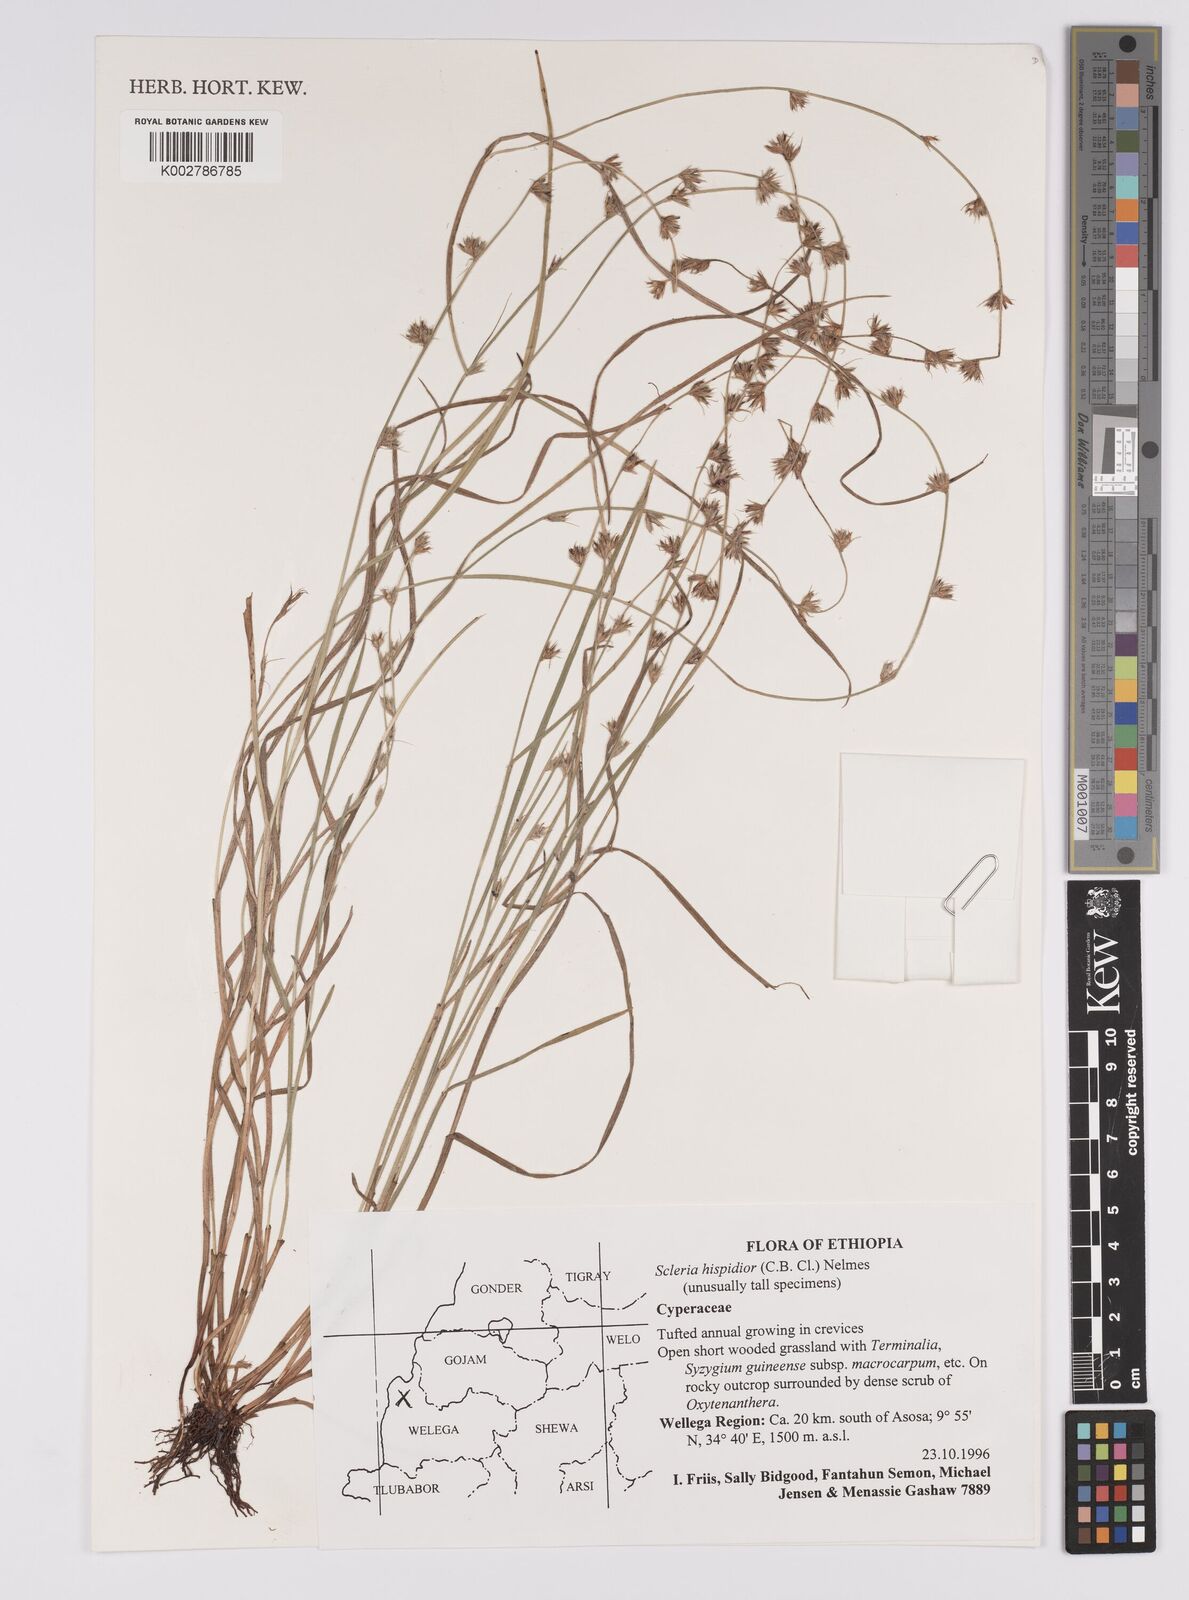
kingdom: Plantae
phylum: Tracheophyta
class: Liliopsida
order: Poales
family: Cyperaceae
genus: Scleria
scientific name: Scleria hispidula
